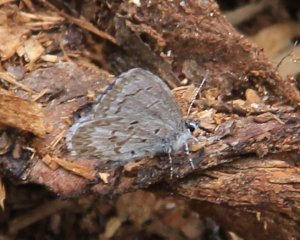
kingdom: Animalia
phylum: Arthropoda
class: Insecta
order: Lepidoptera
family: Lycaenidae
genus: Celastrina
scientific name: Celastrina
